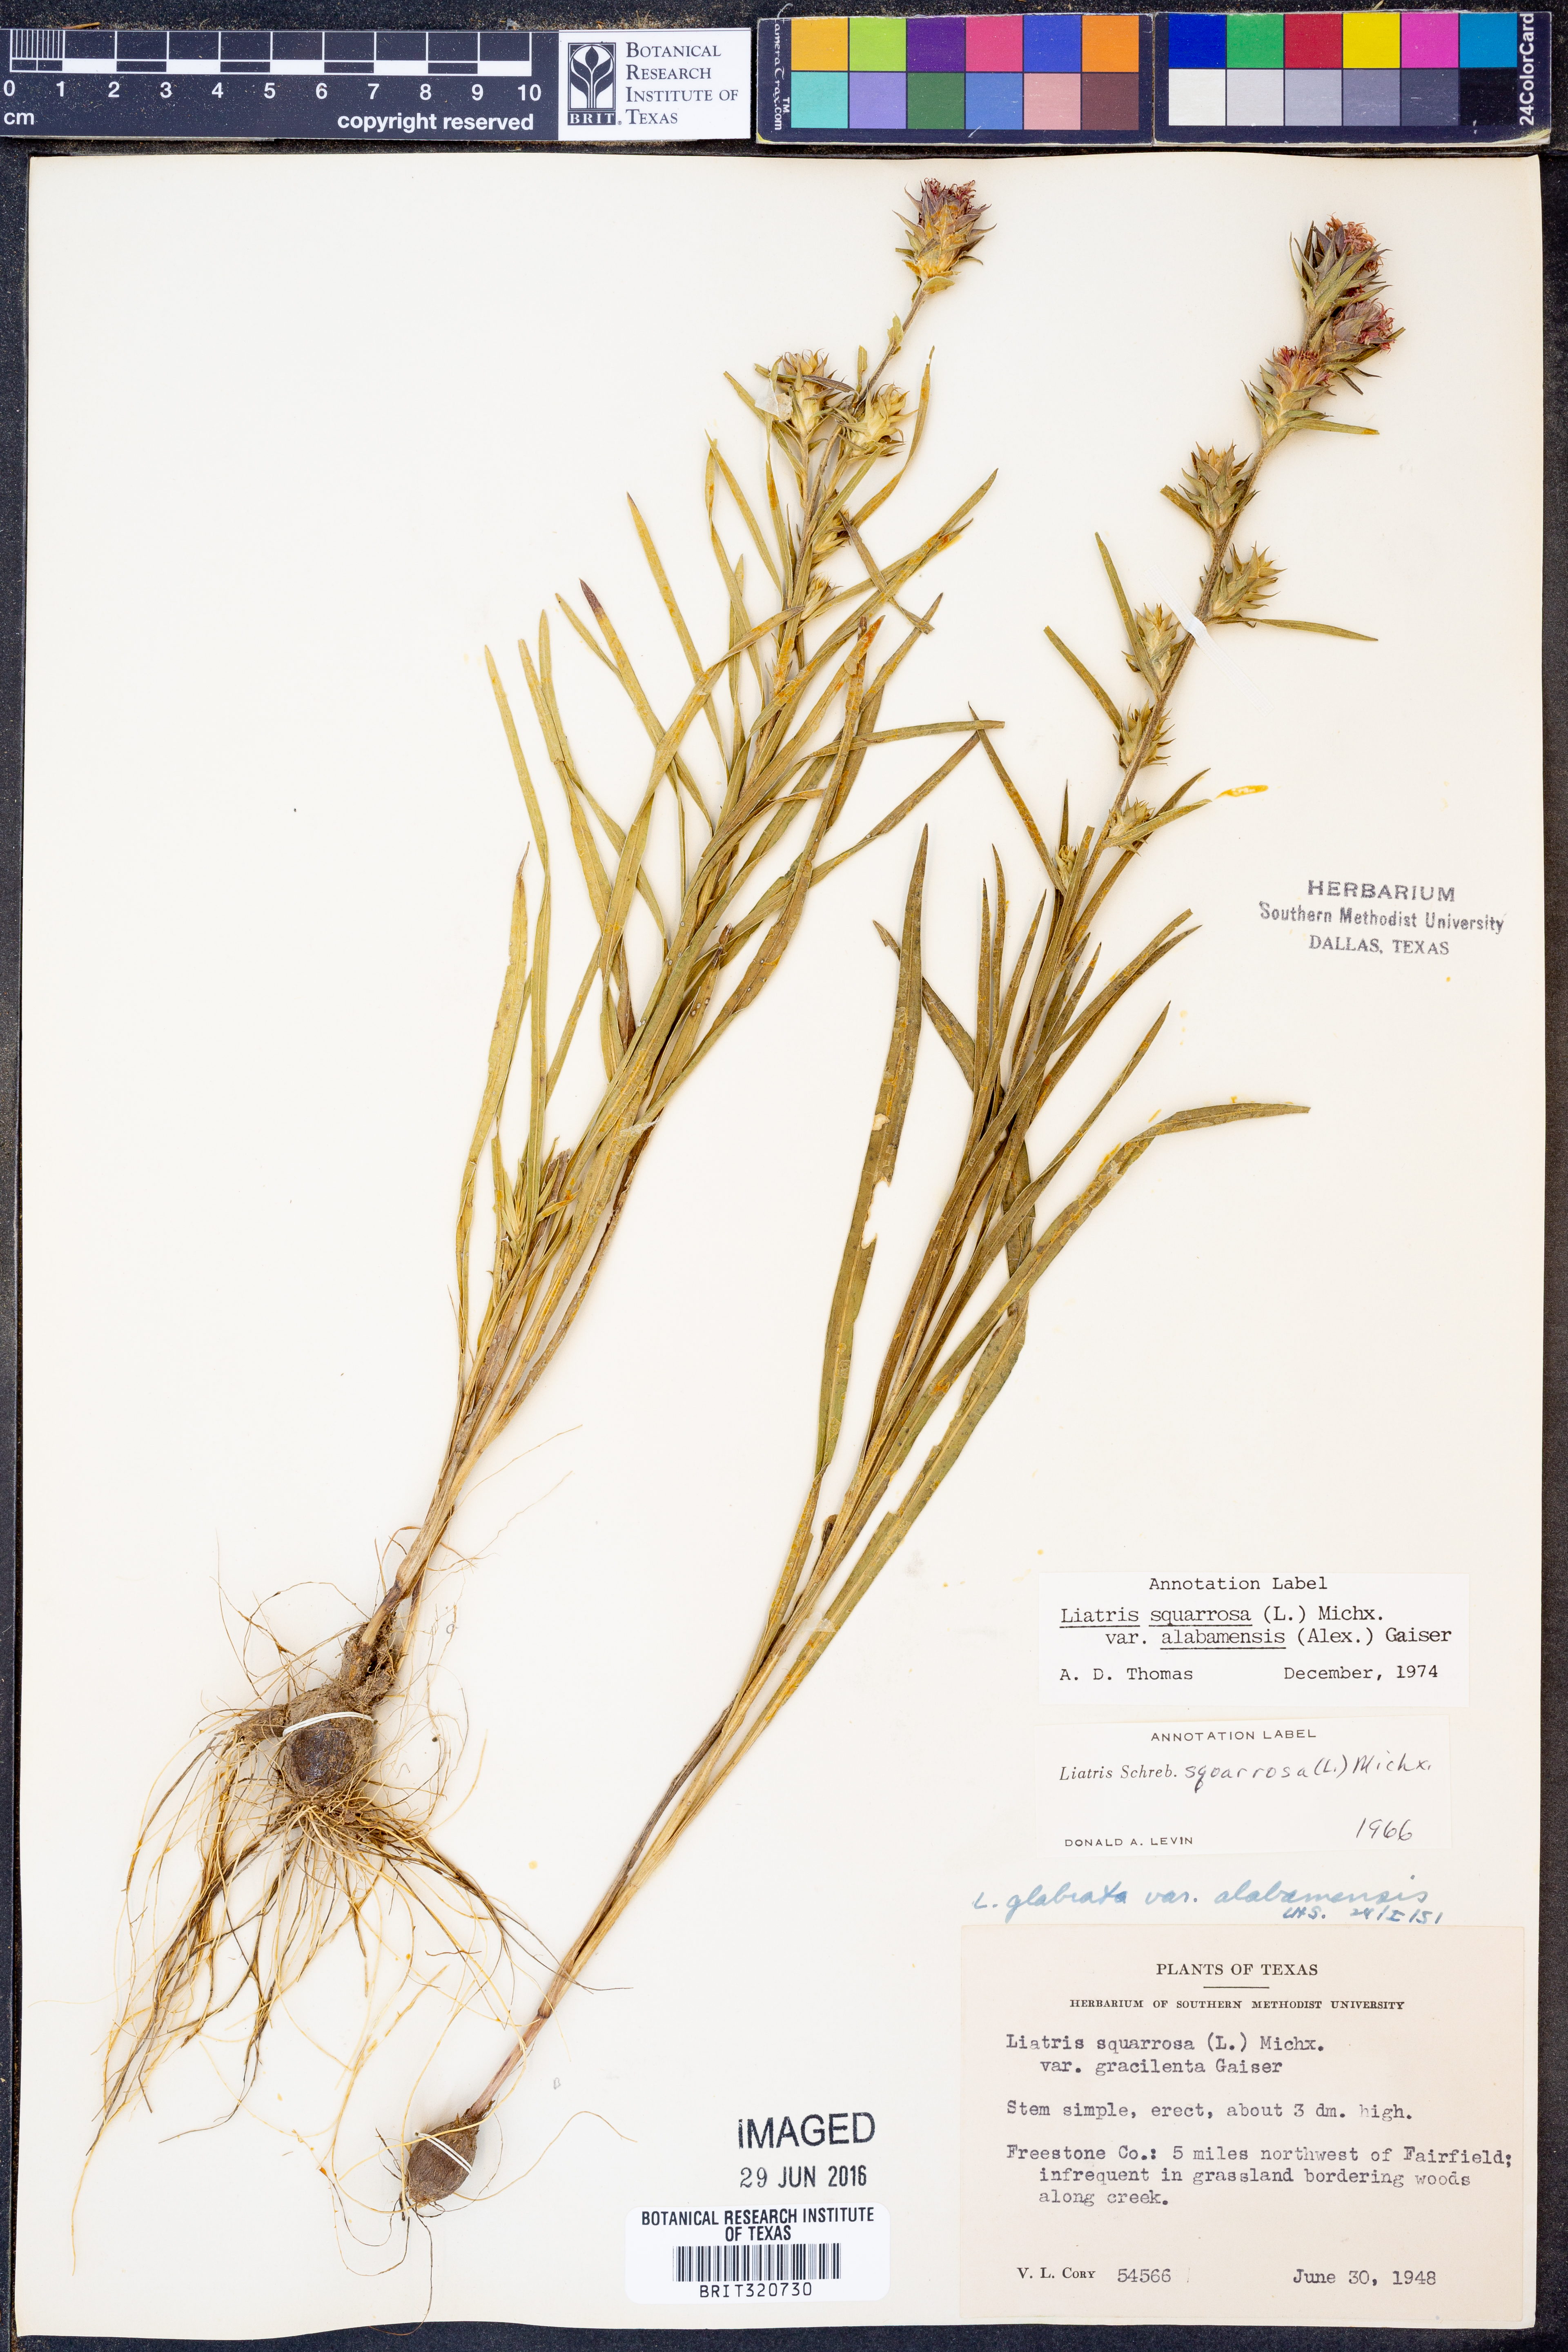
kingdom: Plantae
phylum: Tracheophyta
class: Magnoliopsida
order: Asterales
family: Asteraceae
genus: Liatris
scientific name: Liatris squarrosa
